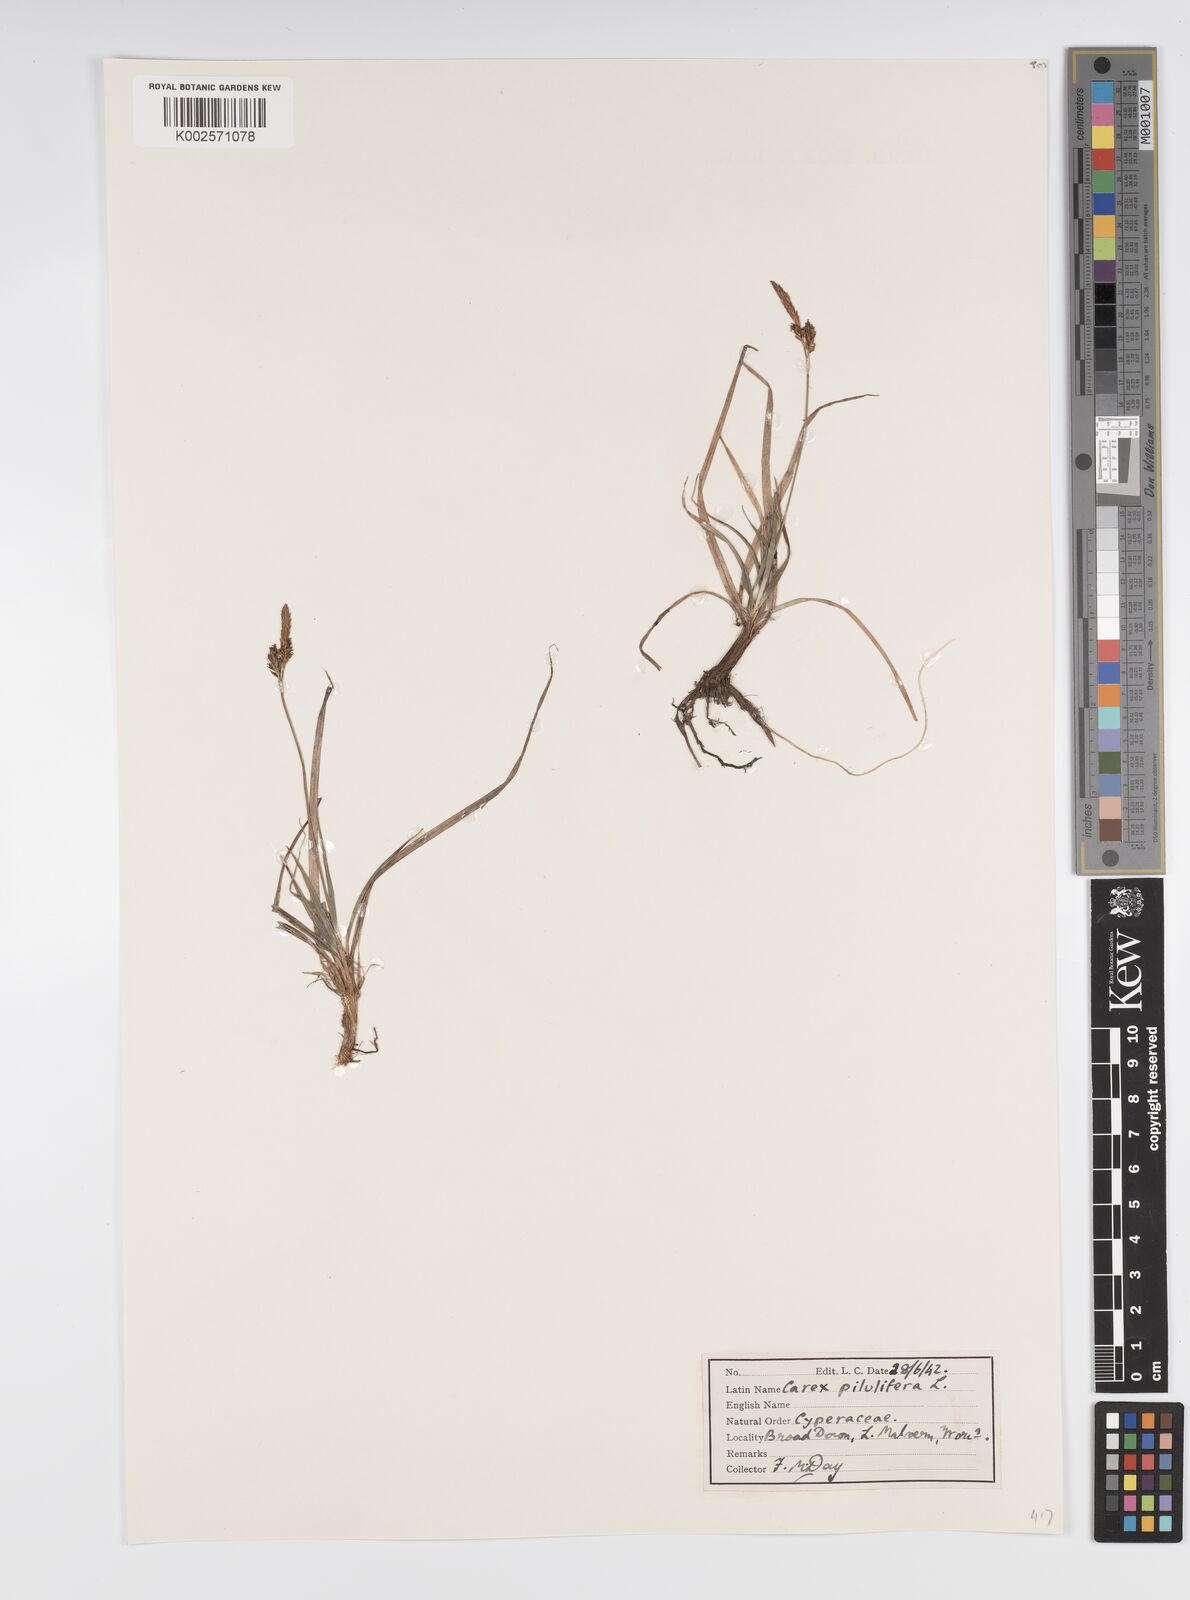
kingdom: Plantae
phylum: Tracheophyta
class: Liliopsida
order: Poales
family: Cyperaceae
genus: Carex
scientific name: Carex pilulifera
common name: Pill sedge
